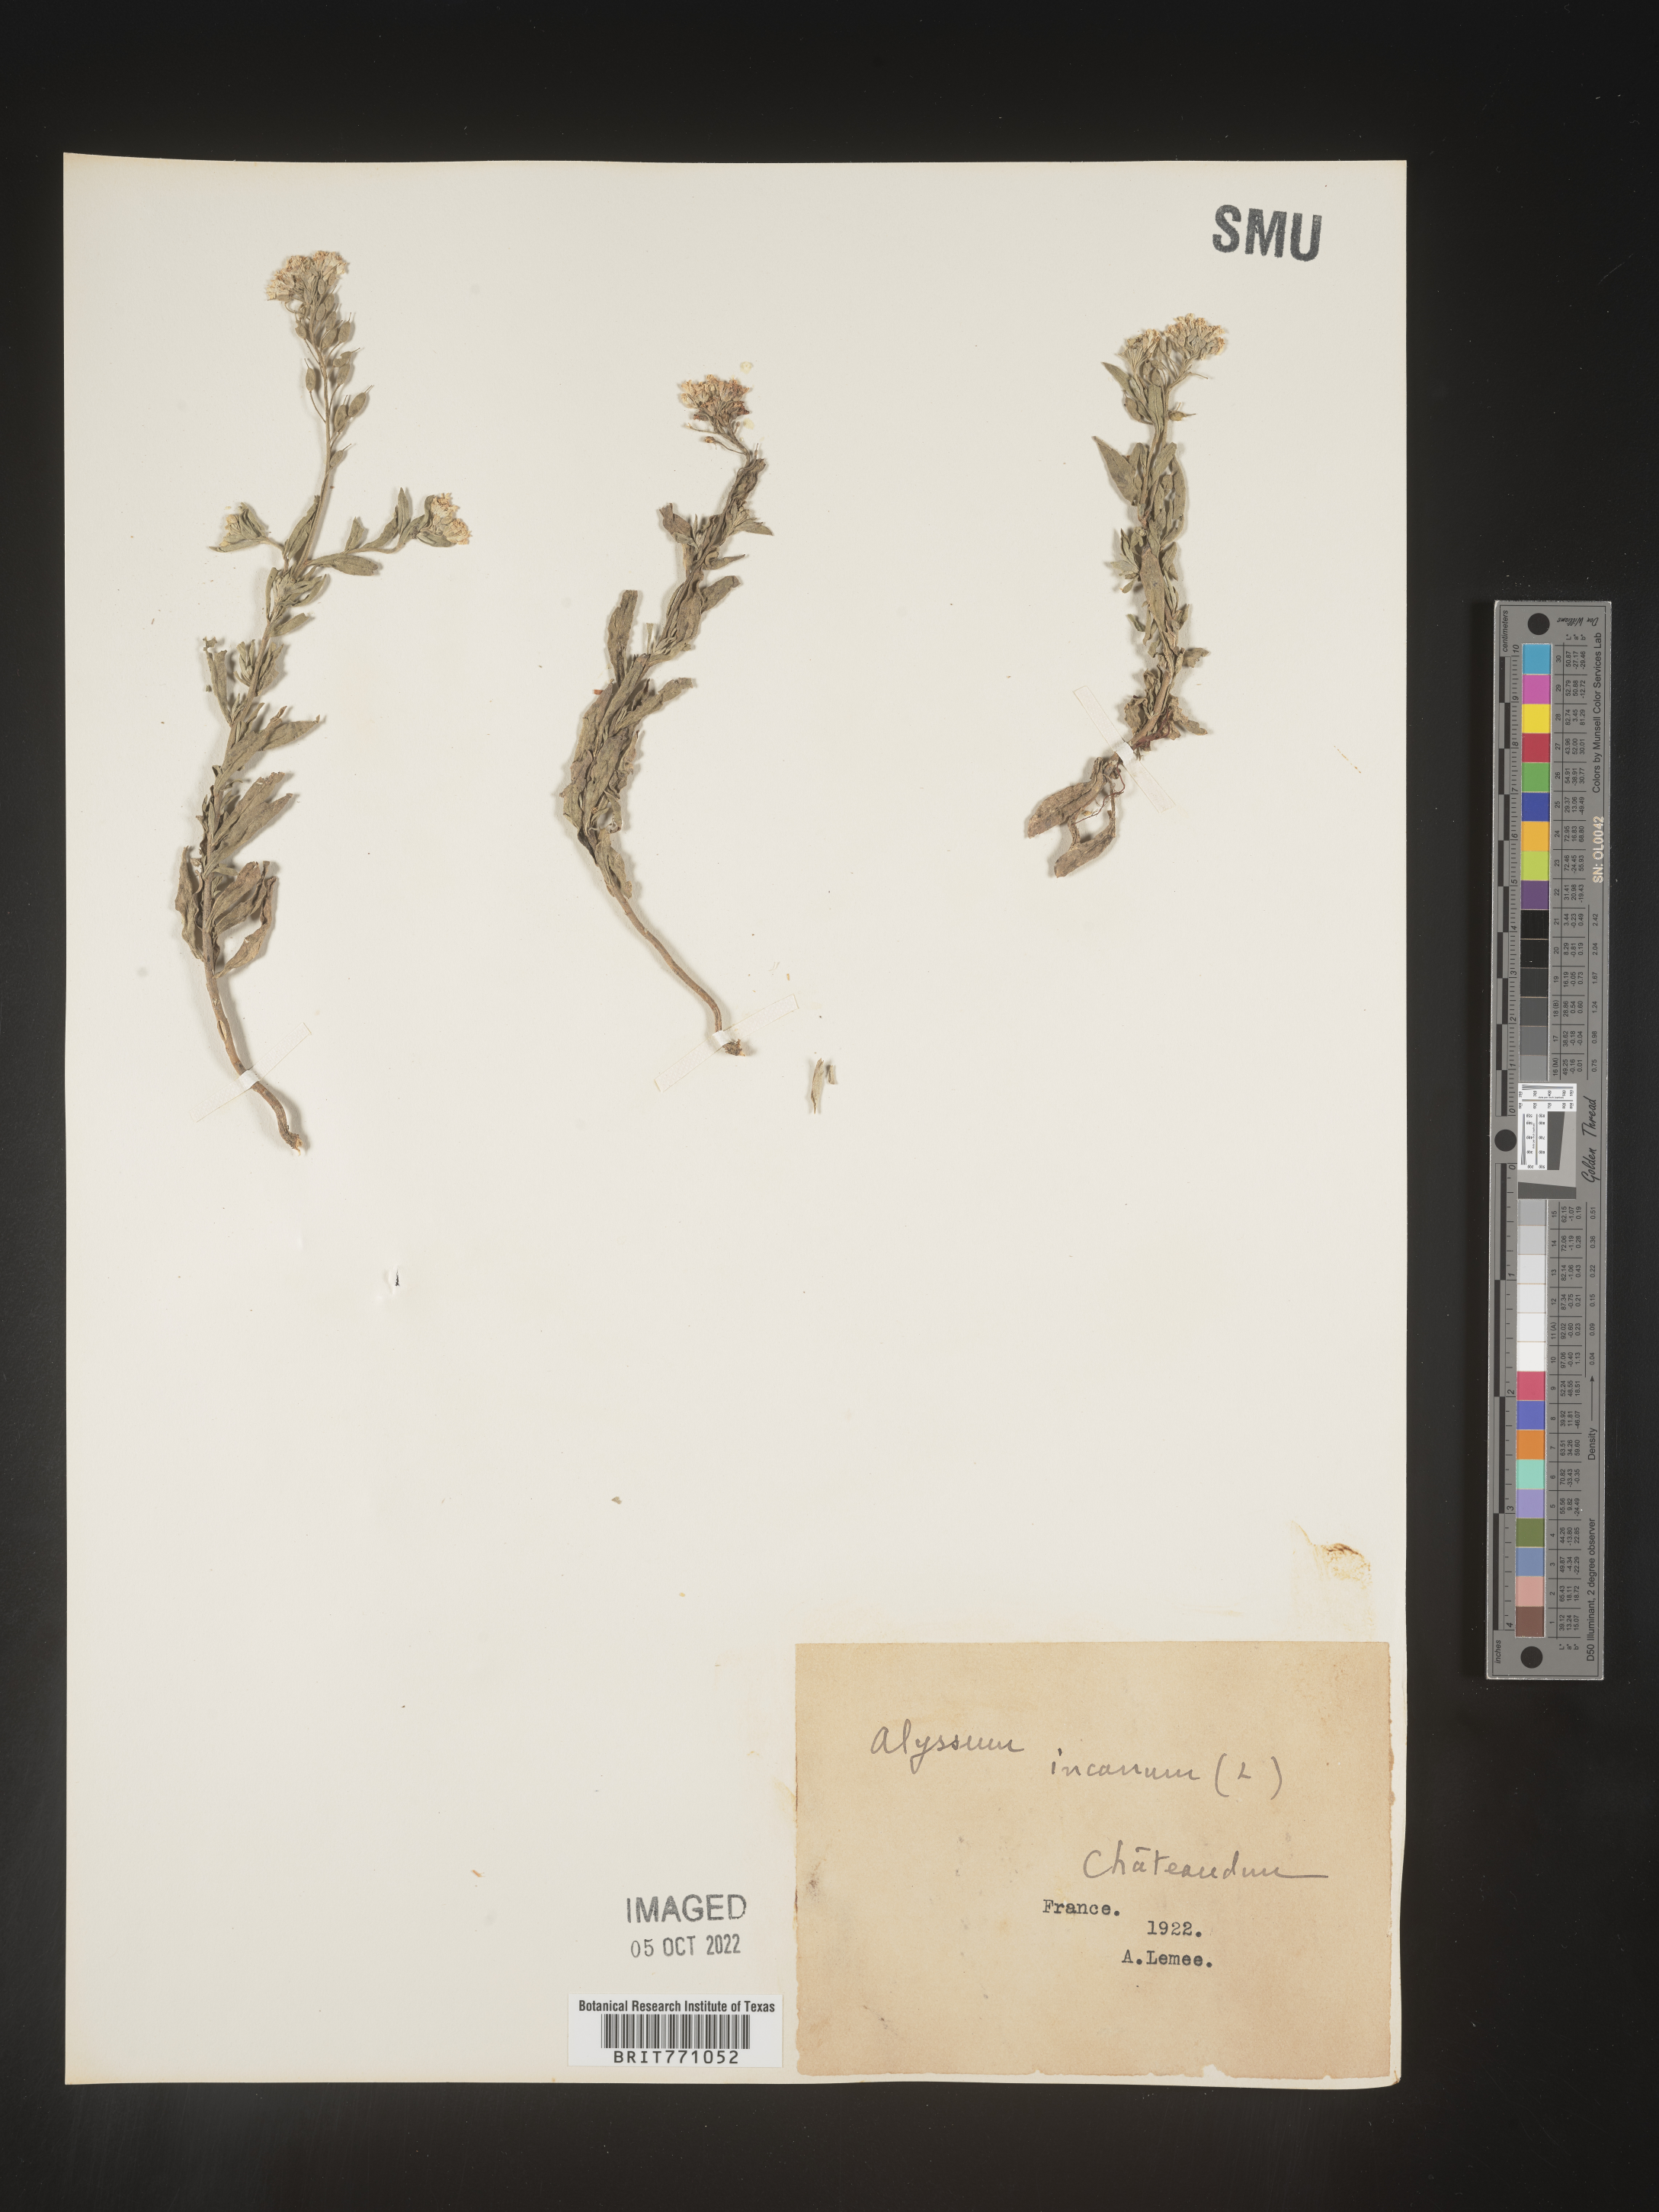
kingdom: Plantae
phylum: Tracheophyta
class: Magnoliopsida
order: Brassicales
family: Brassicaceae
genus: Alyssum
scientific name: Alyssum
